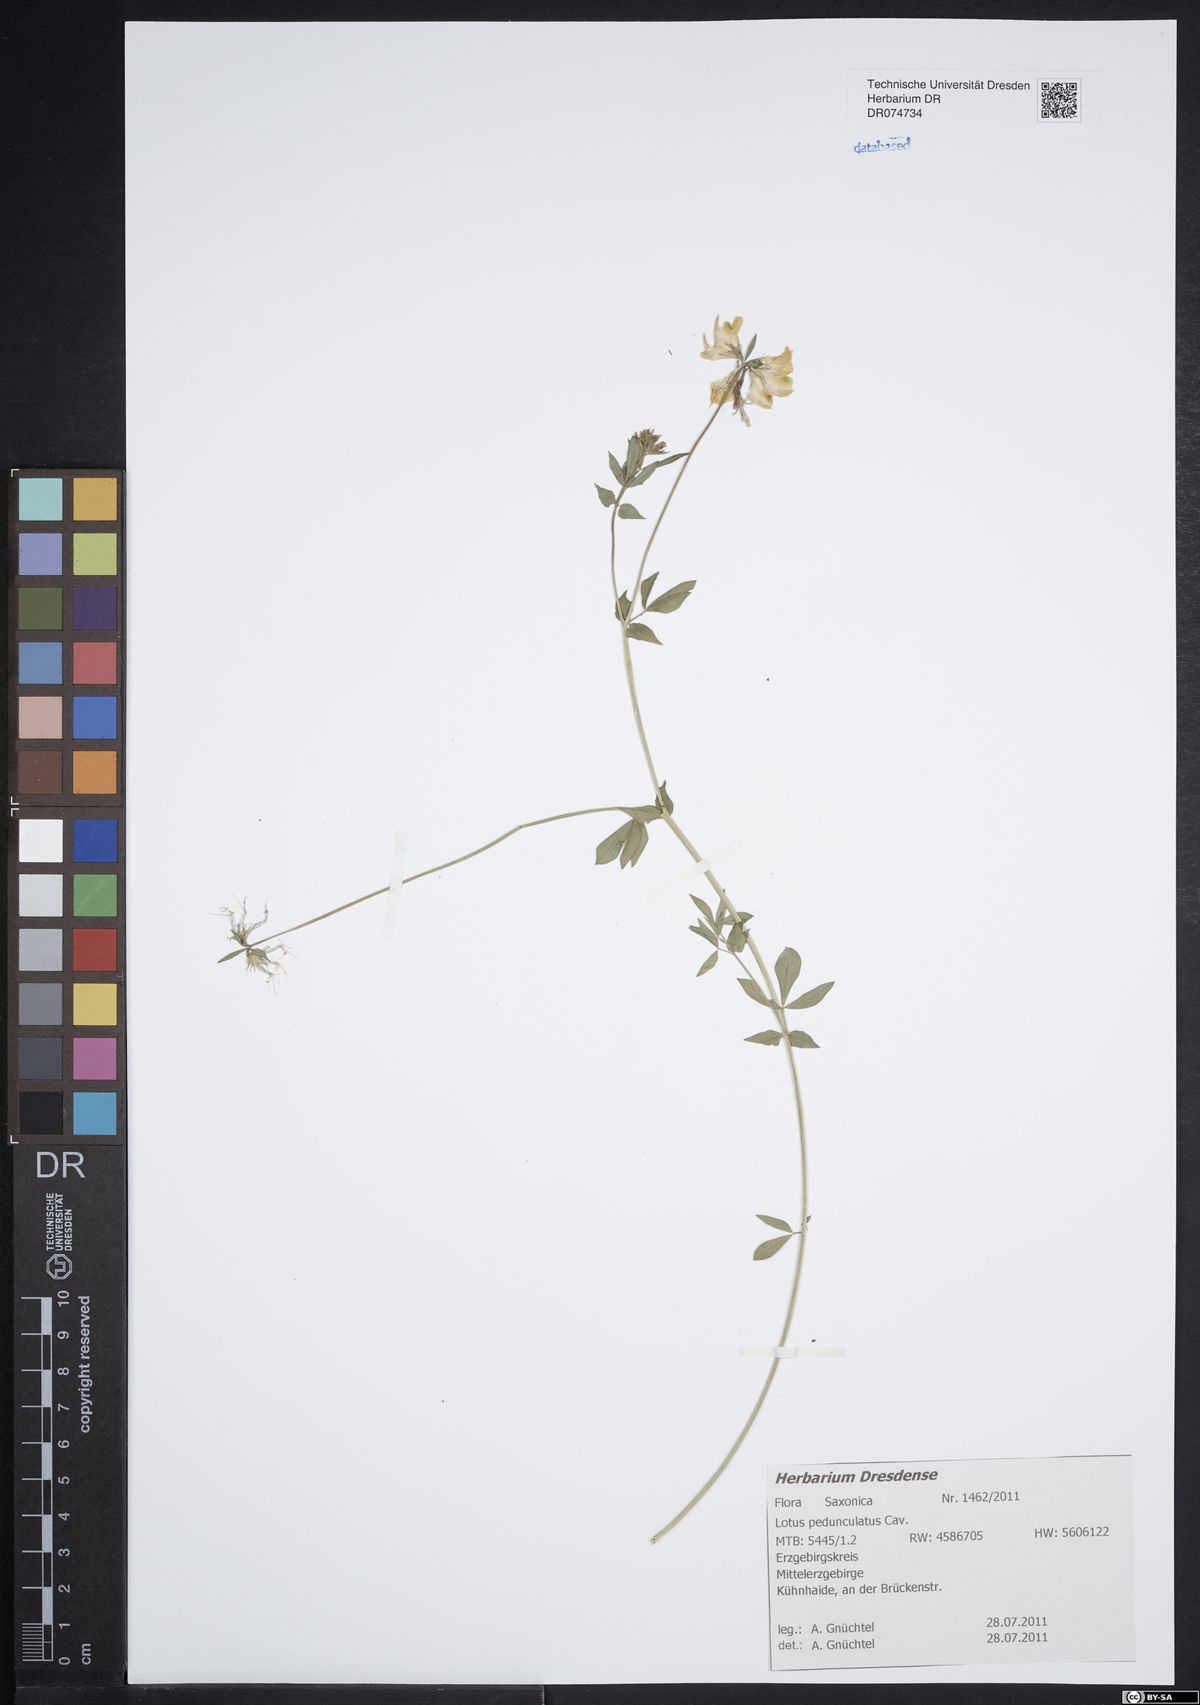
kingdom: Plantae
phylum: Tracheophyta
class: Magnoliopsida
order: Fabales
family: Fabaceae
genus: Lotus
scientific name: Lotus pedunculatus
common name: Greater birdsfoot-trefoil
